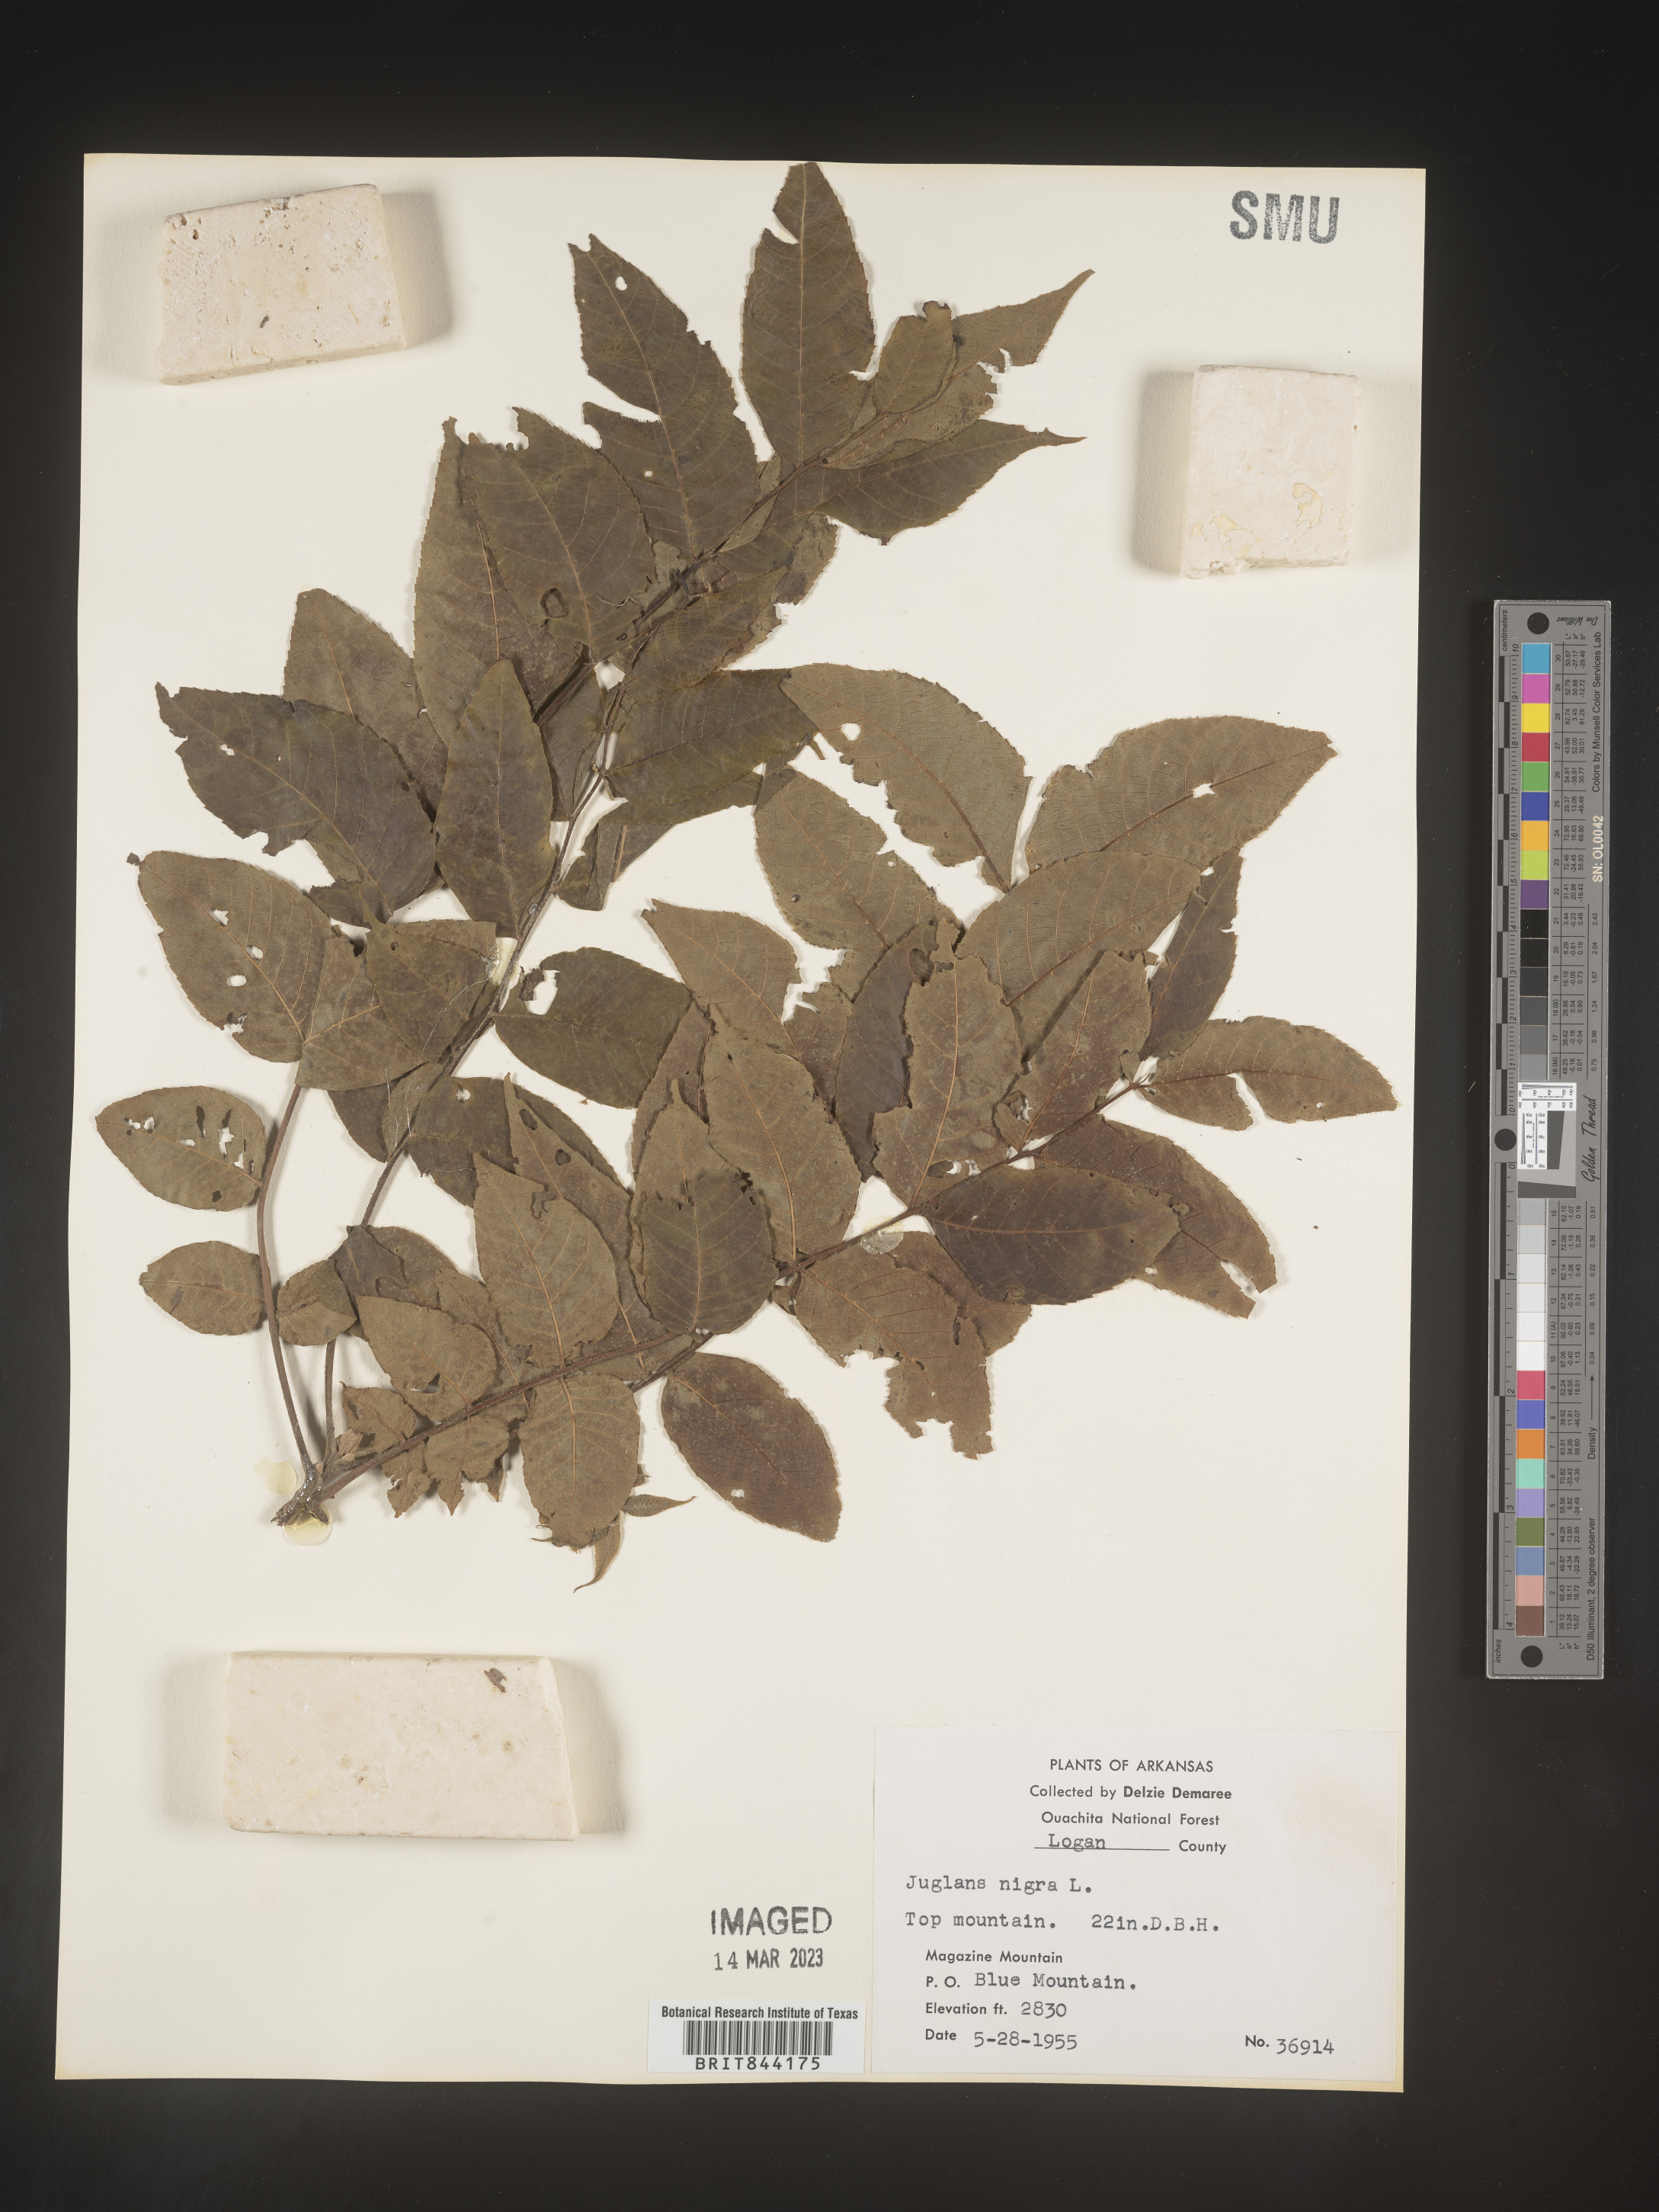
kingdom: Plantae
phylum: Tracheophyta
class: Magnoliopsida
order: Fagales
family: Juglandaceae
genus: Juglans
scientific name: Juglans nigra
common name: Black walnut
